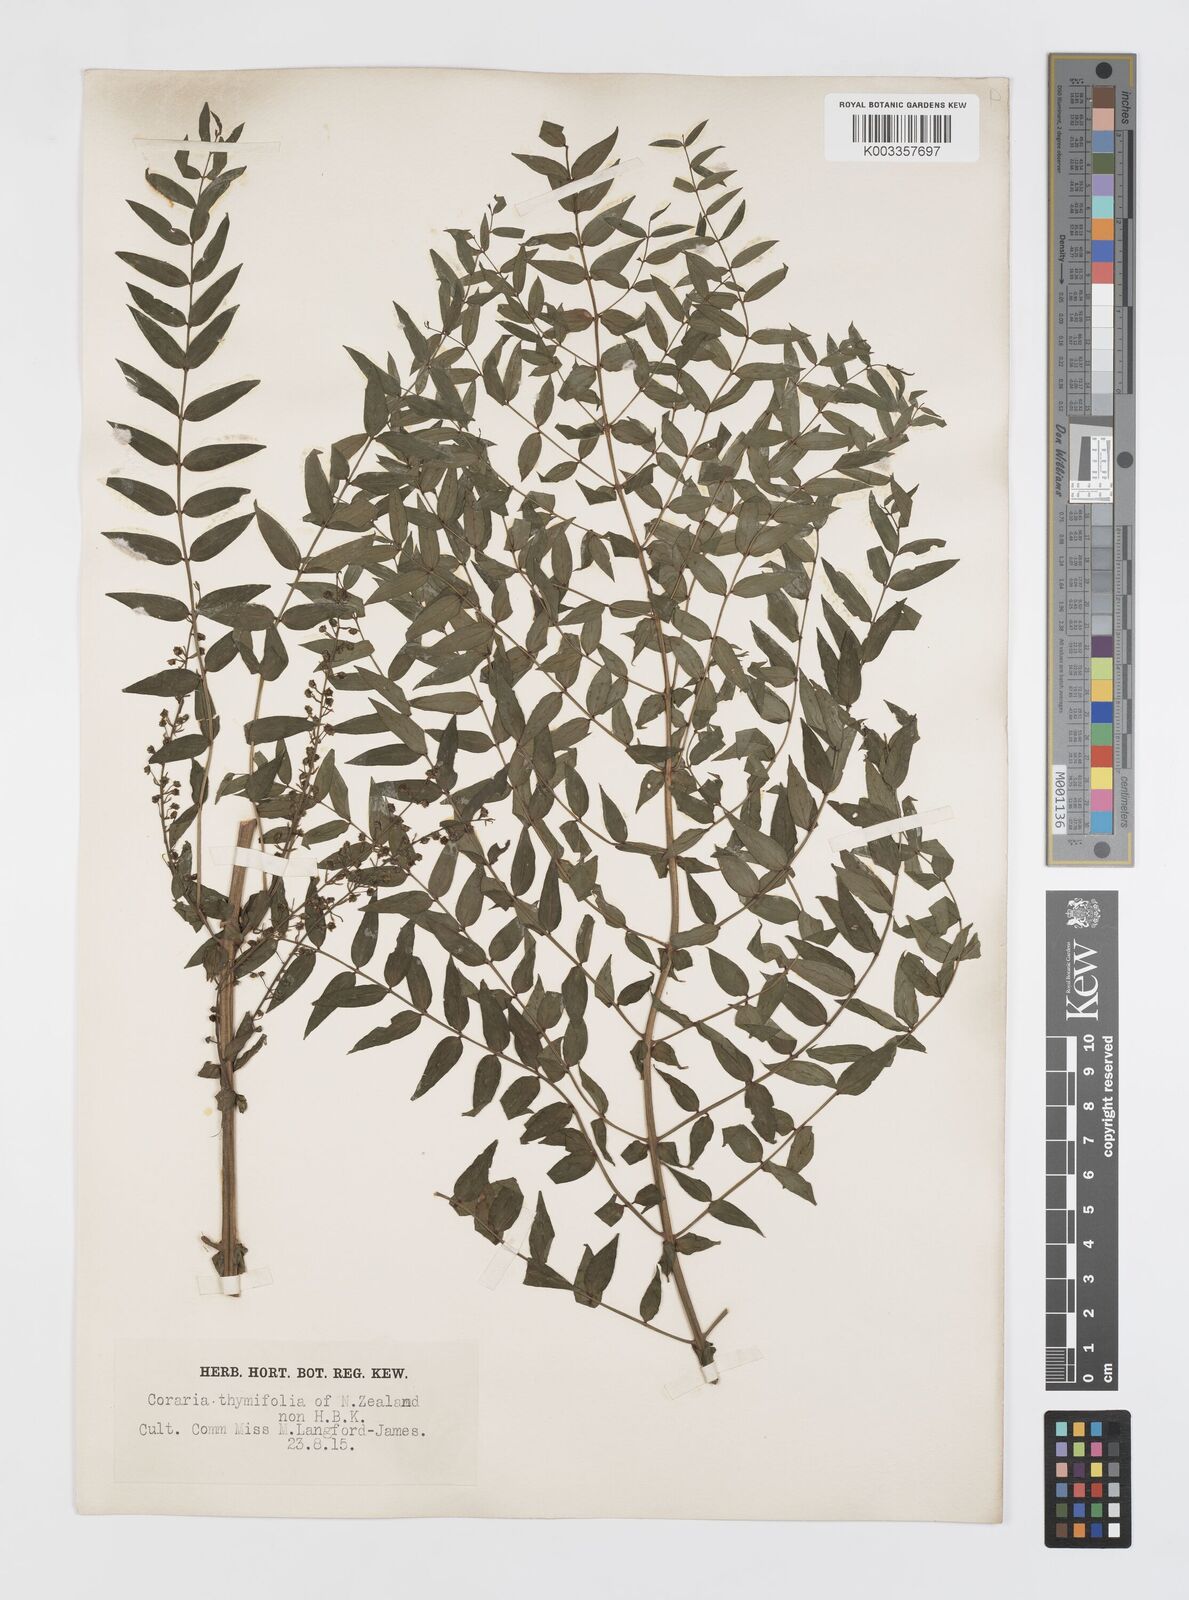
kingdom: Plantae
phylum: Tracheophyta
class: Magnoliopsida
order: Cucurbitales
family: Coriariaceae
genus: Coriaria
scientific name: Coriaria lurida
